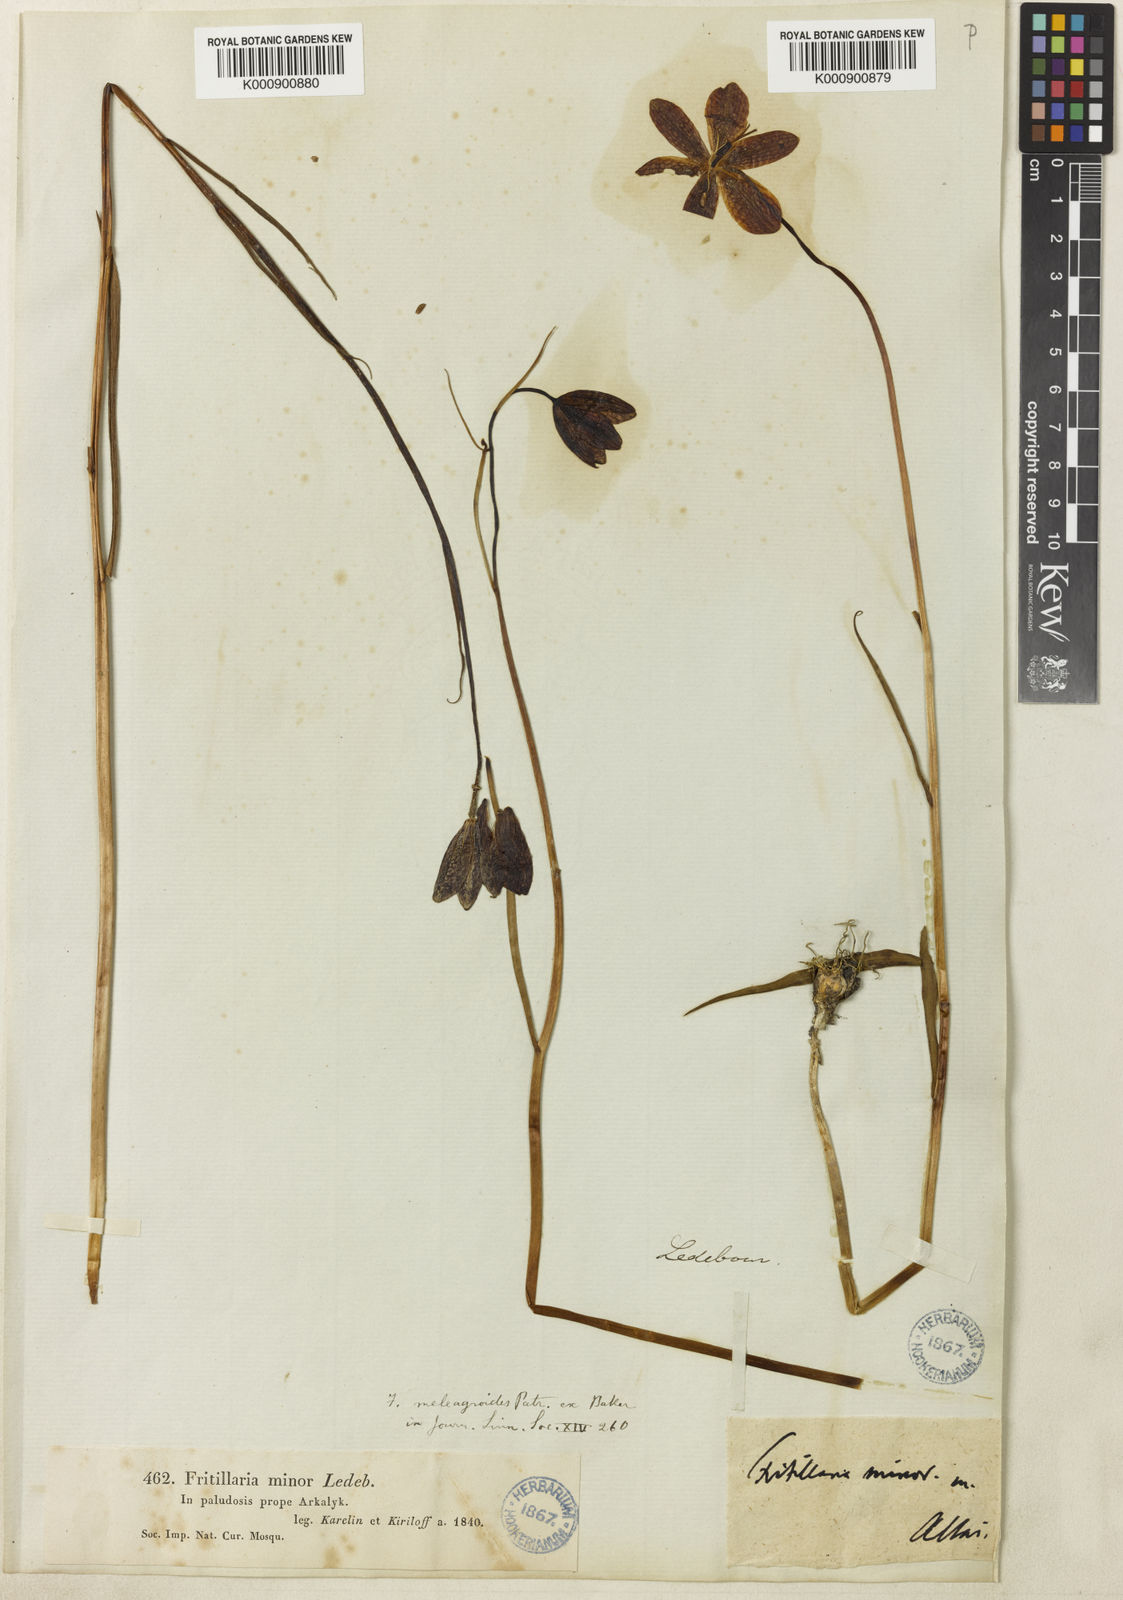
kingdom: Plantae
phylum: Tracheophyta
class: Liliopsida
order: Liliales
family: Liliaceae
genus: Fritillaria
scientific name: Fritillaria meleagroides
